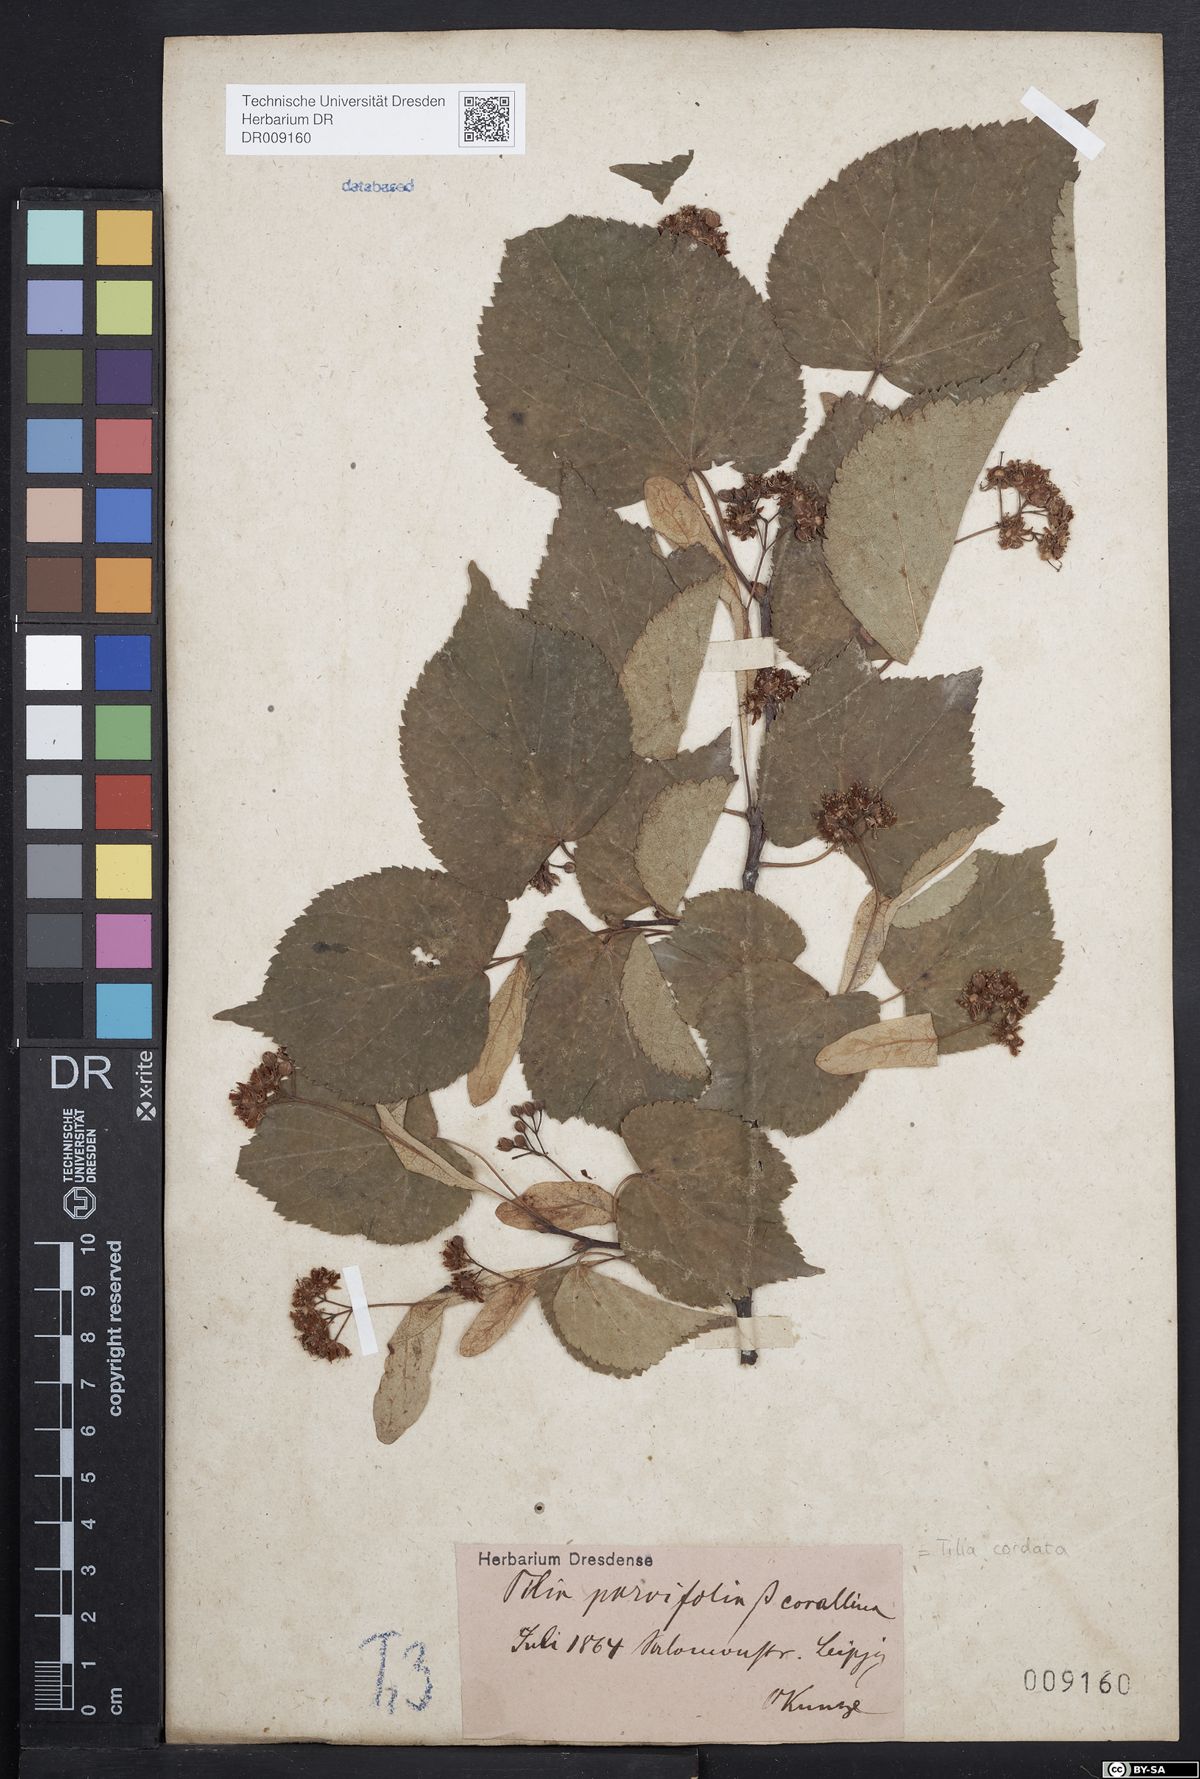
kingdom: Plantae
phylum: Tracheophyta
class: Magnoliopsida
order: Malvales
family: Malvaceae
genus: Tilia
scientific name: Tilia cordata
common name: Small-leaved lime
